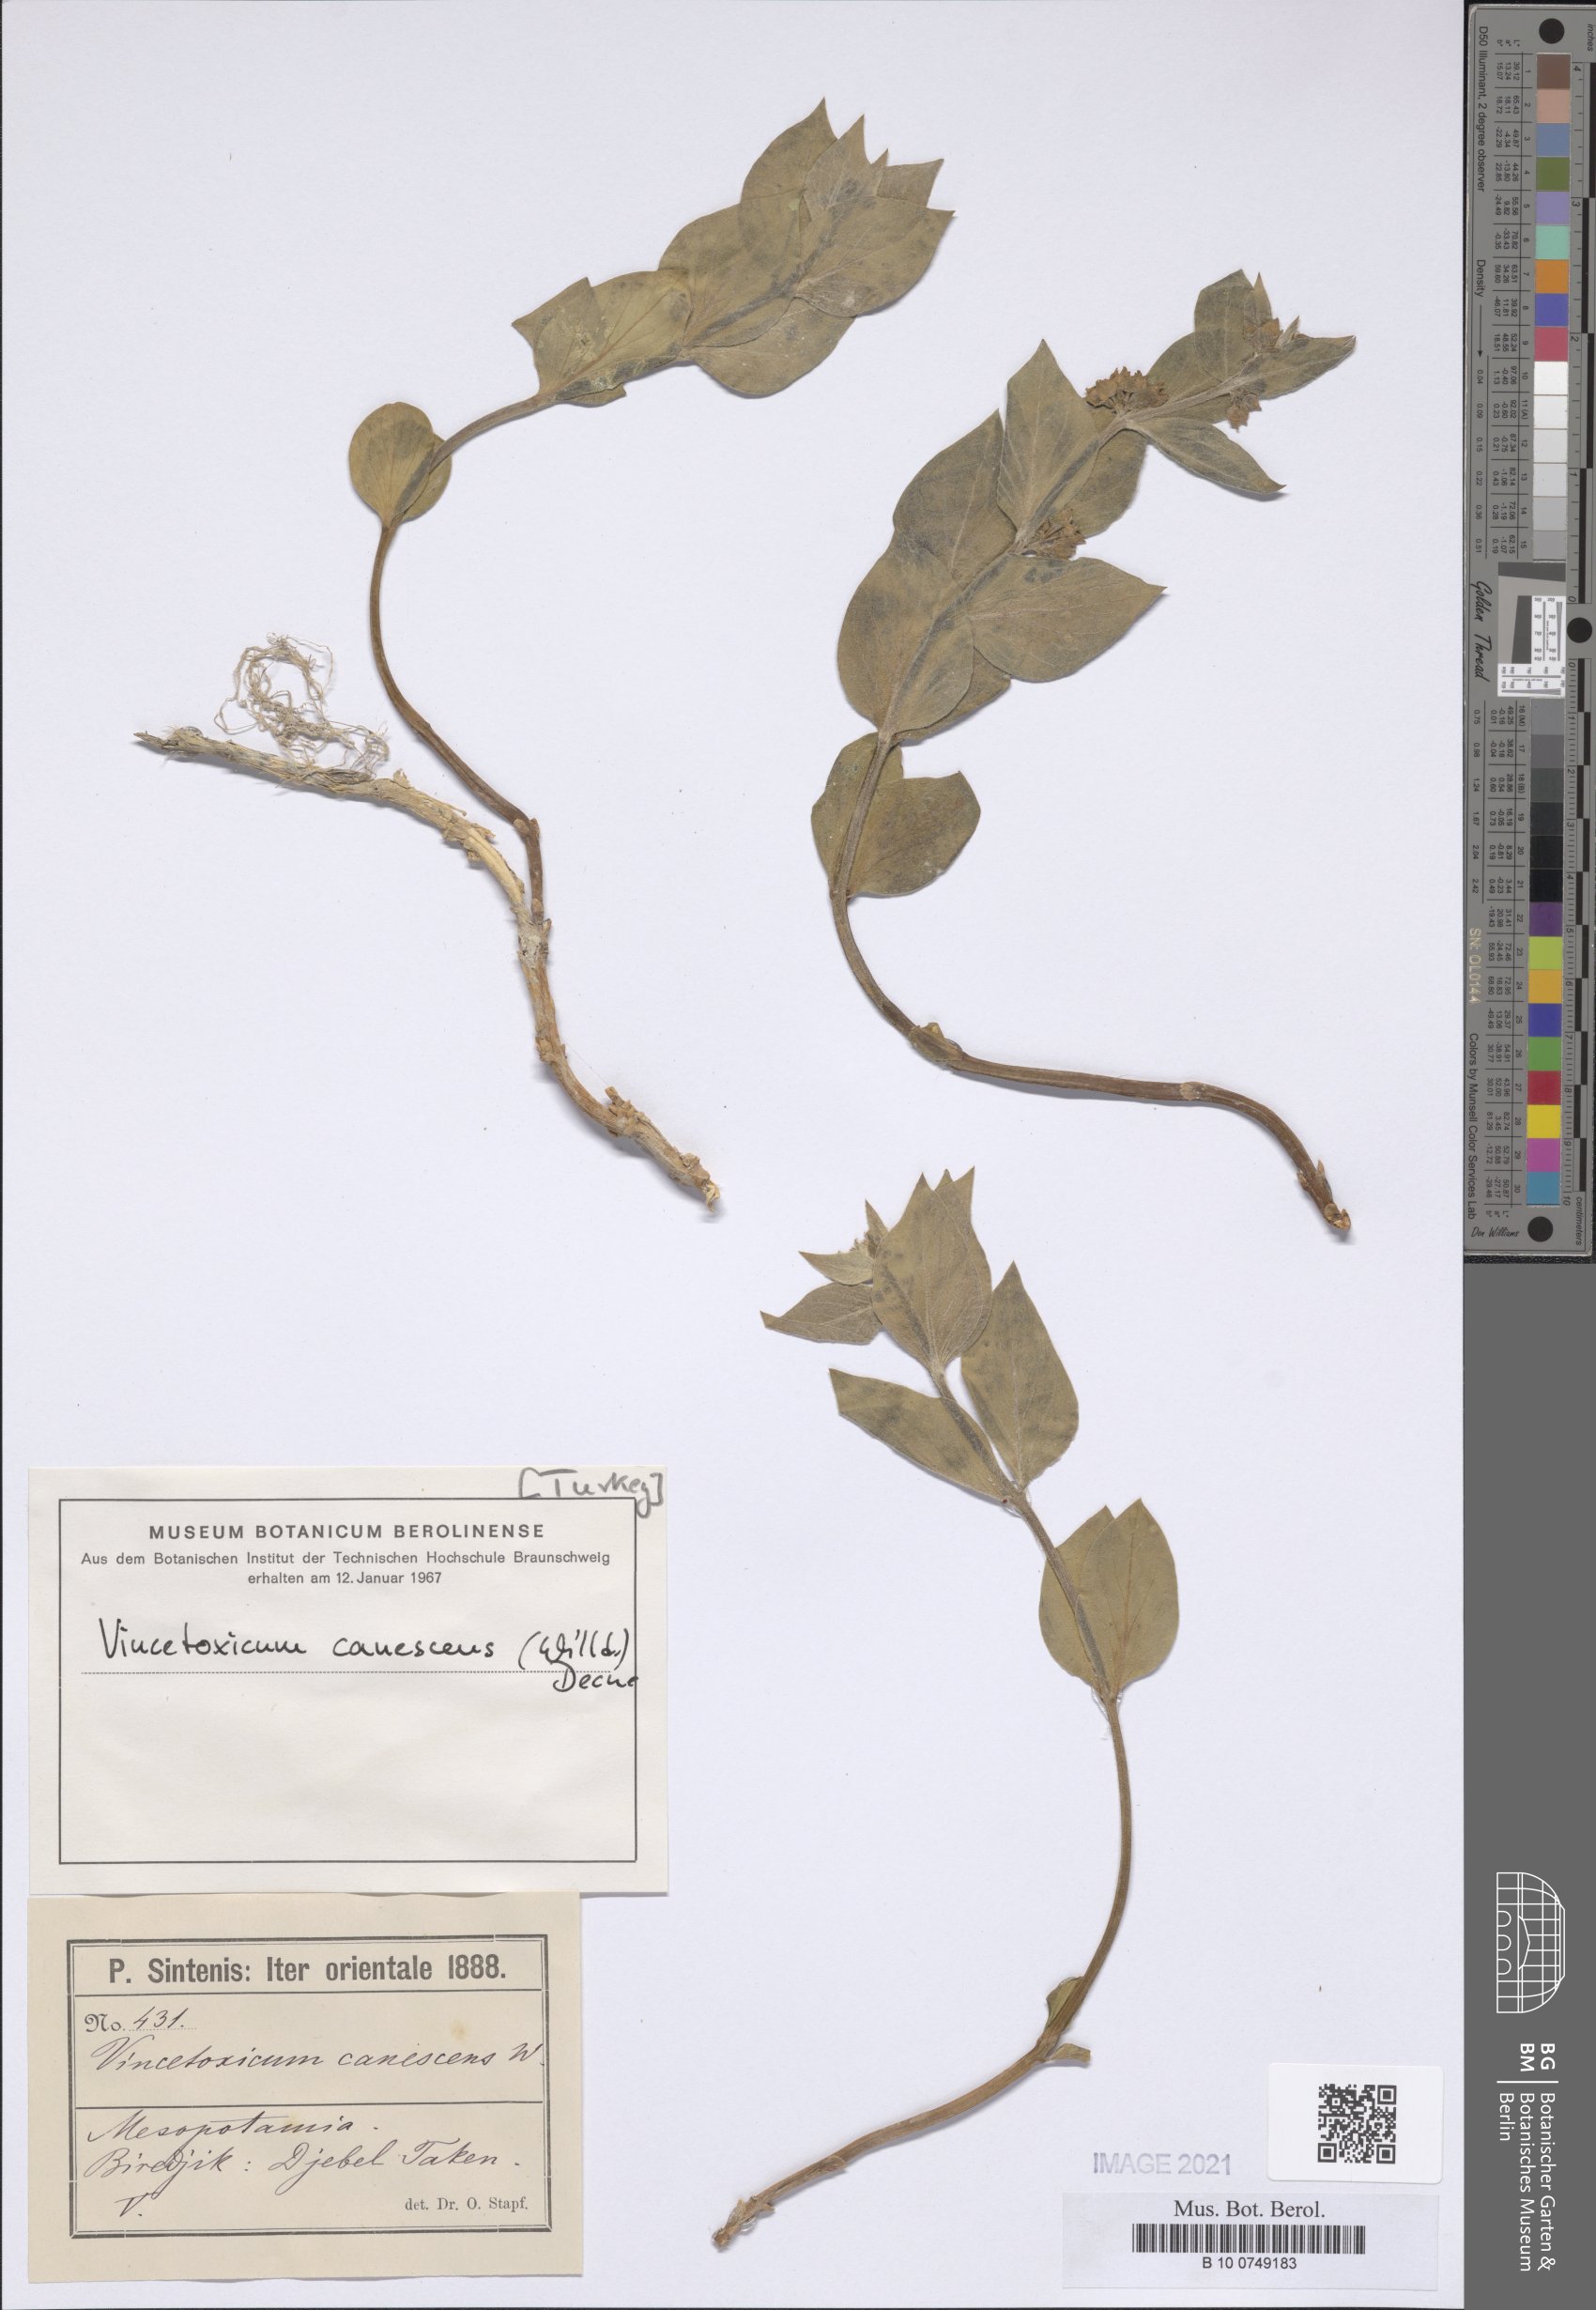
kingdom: Plantae
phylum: Tracheophyta
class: Magnoliopsida
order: Gentianales
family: Apocynaceae
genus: Vincetoxicum
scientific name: Vincetoxicum canescens
